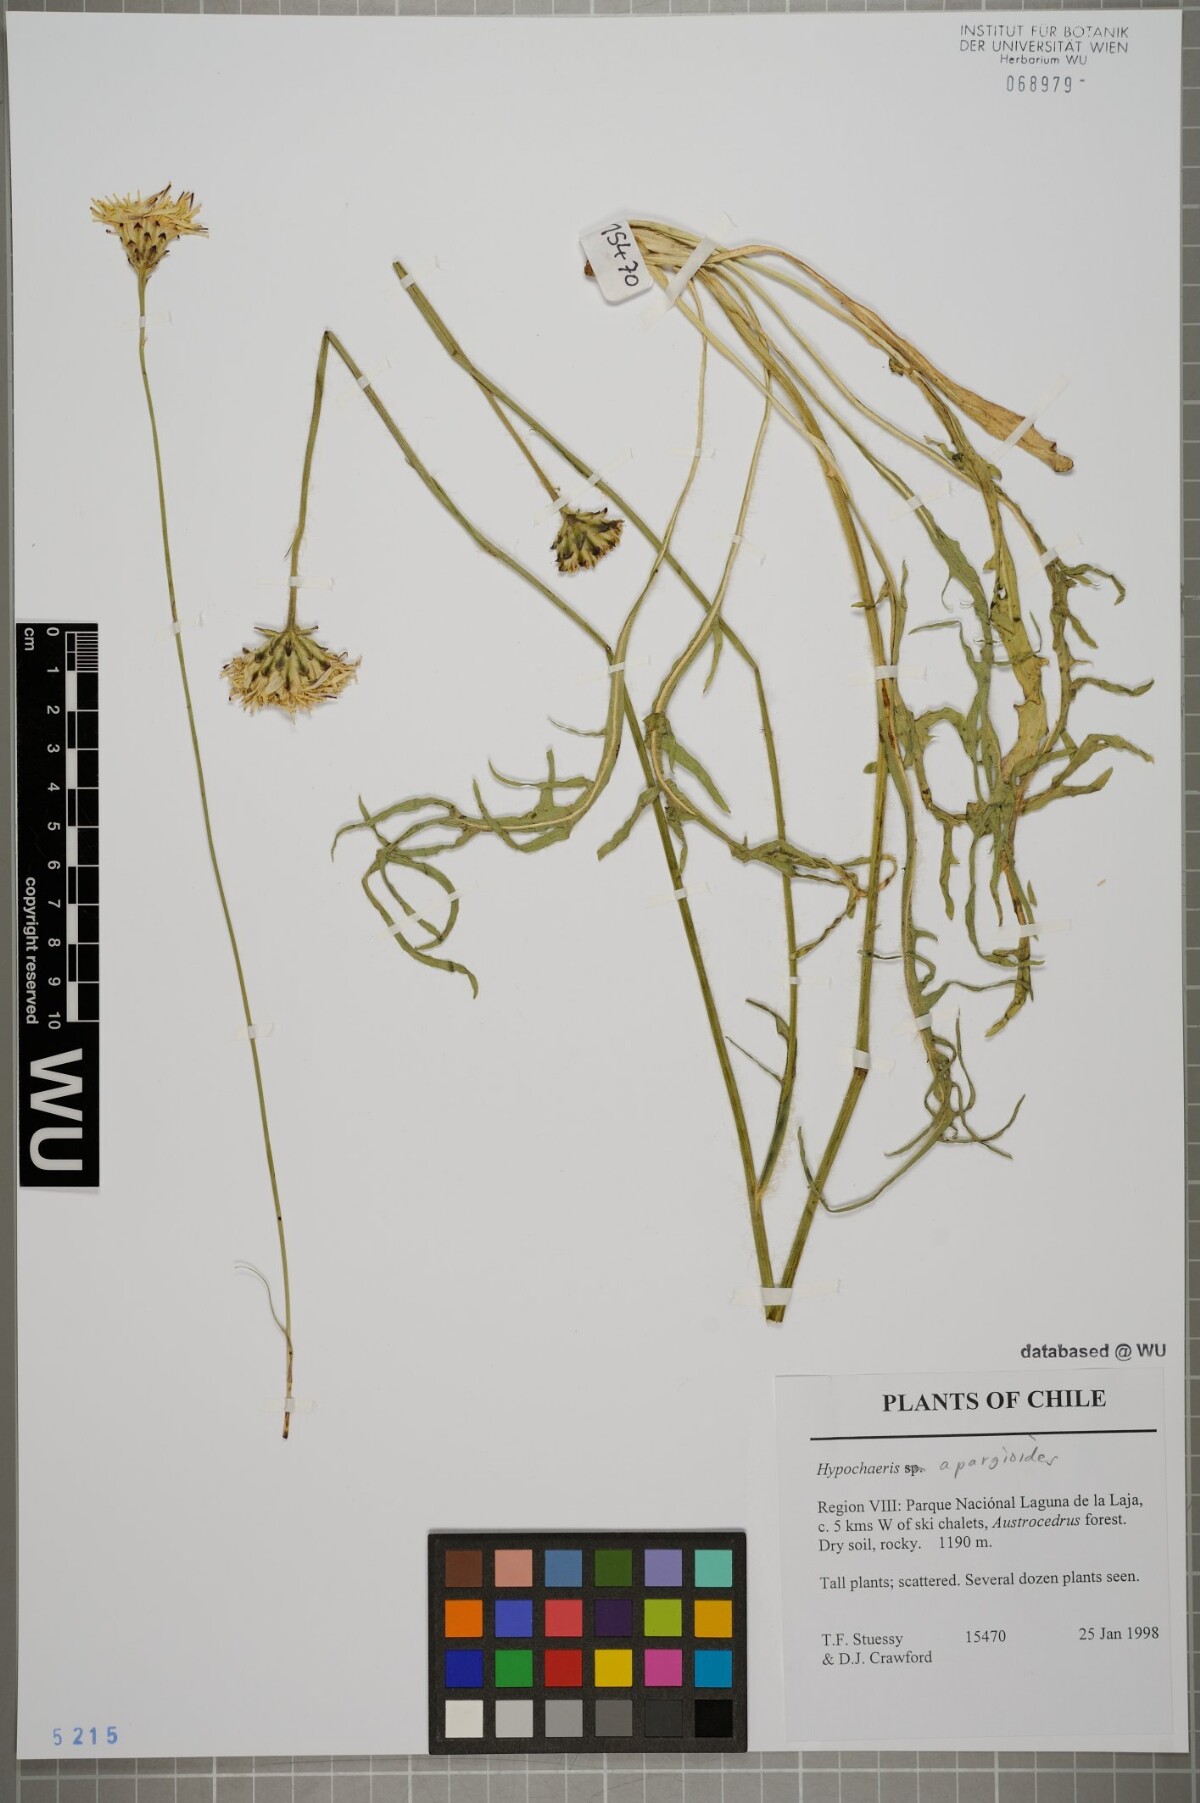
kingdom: Plantae
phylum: Tracheophyta
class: Magnoliopsida
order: Asterales
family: Asteraceae
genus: Hypochaeris
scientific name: Hypochaeris apargioides
